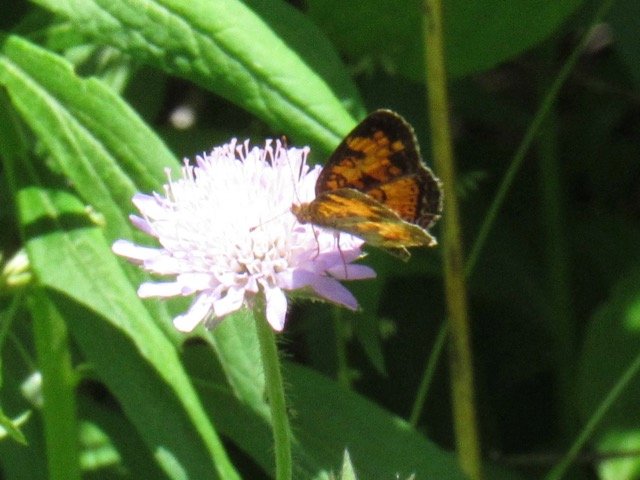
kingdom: Animalia
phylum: Arthropoda
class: Insecta
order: Lepidoptera
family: Nymphalidae
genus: Phyciodes
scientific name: Phyciodes tharos
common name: Pearl Crescent
